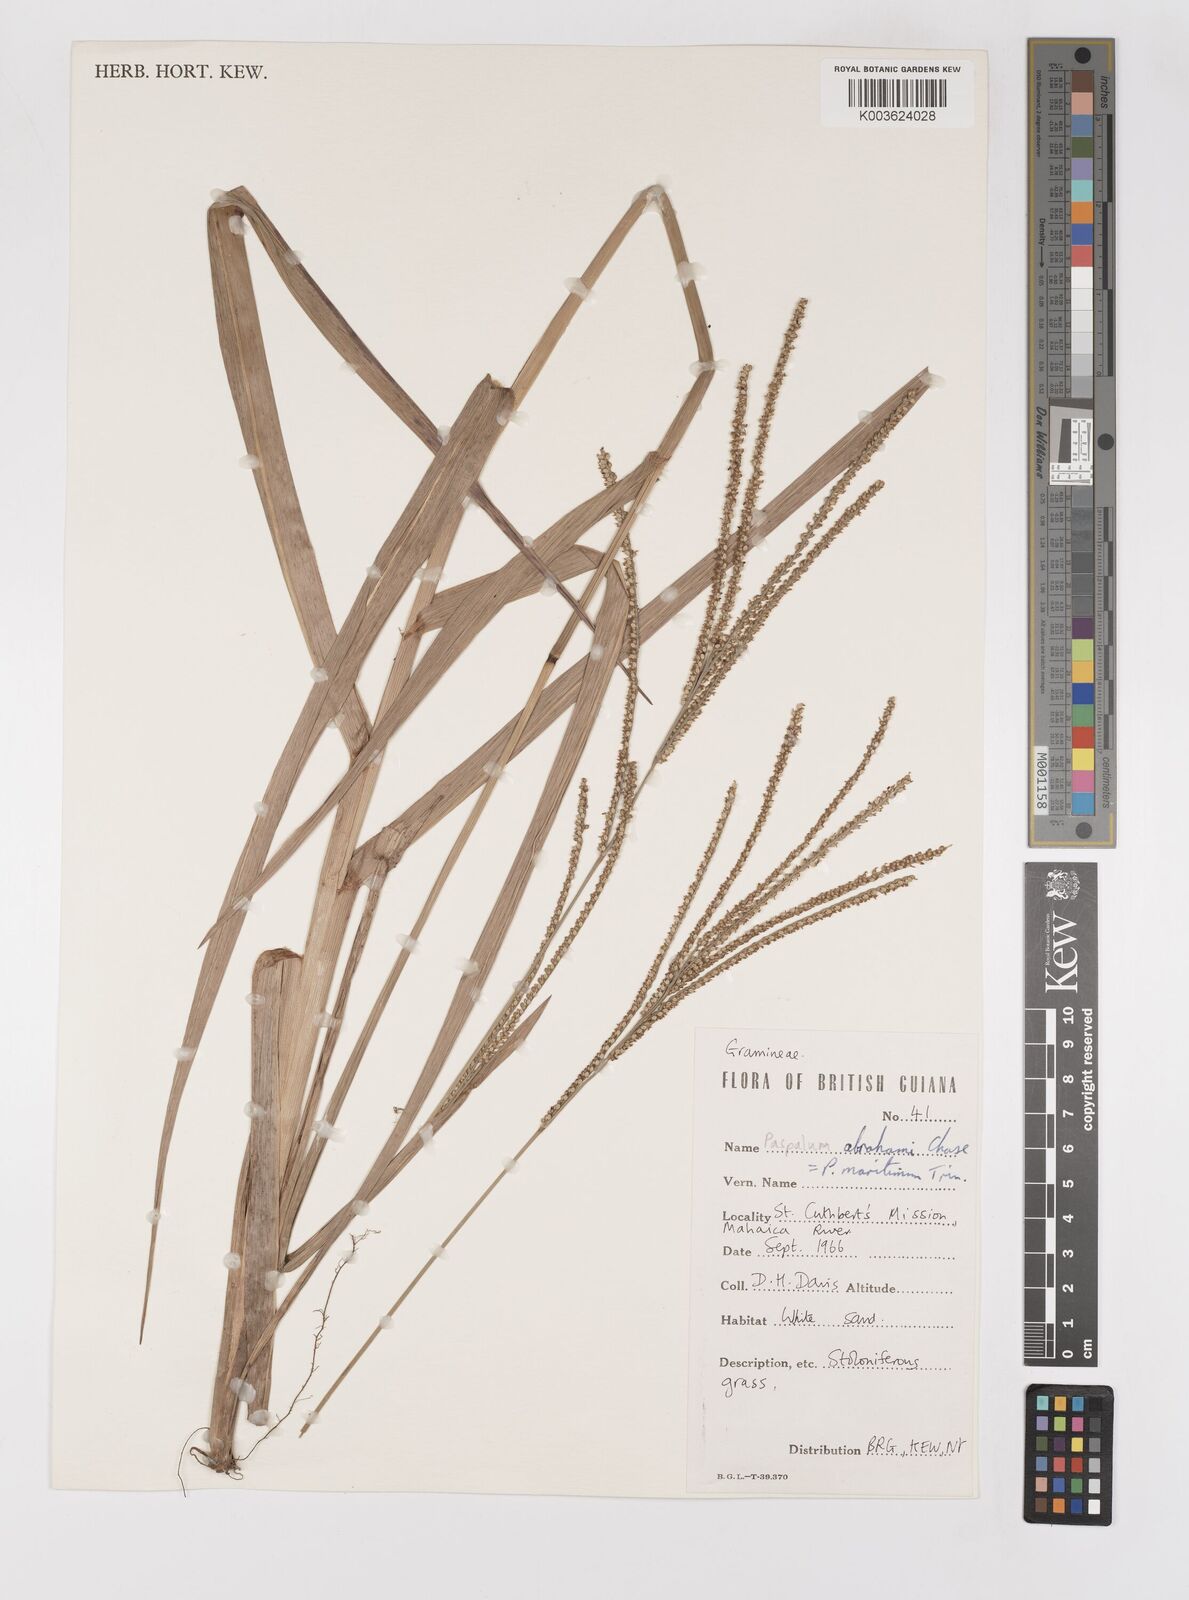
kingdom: Plantae
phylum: Tracheophyta
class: Liliopsida
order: Poales
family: Poaceae
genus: Paspalum
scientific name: Paspalum maritimum
